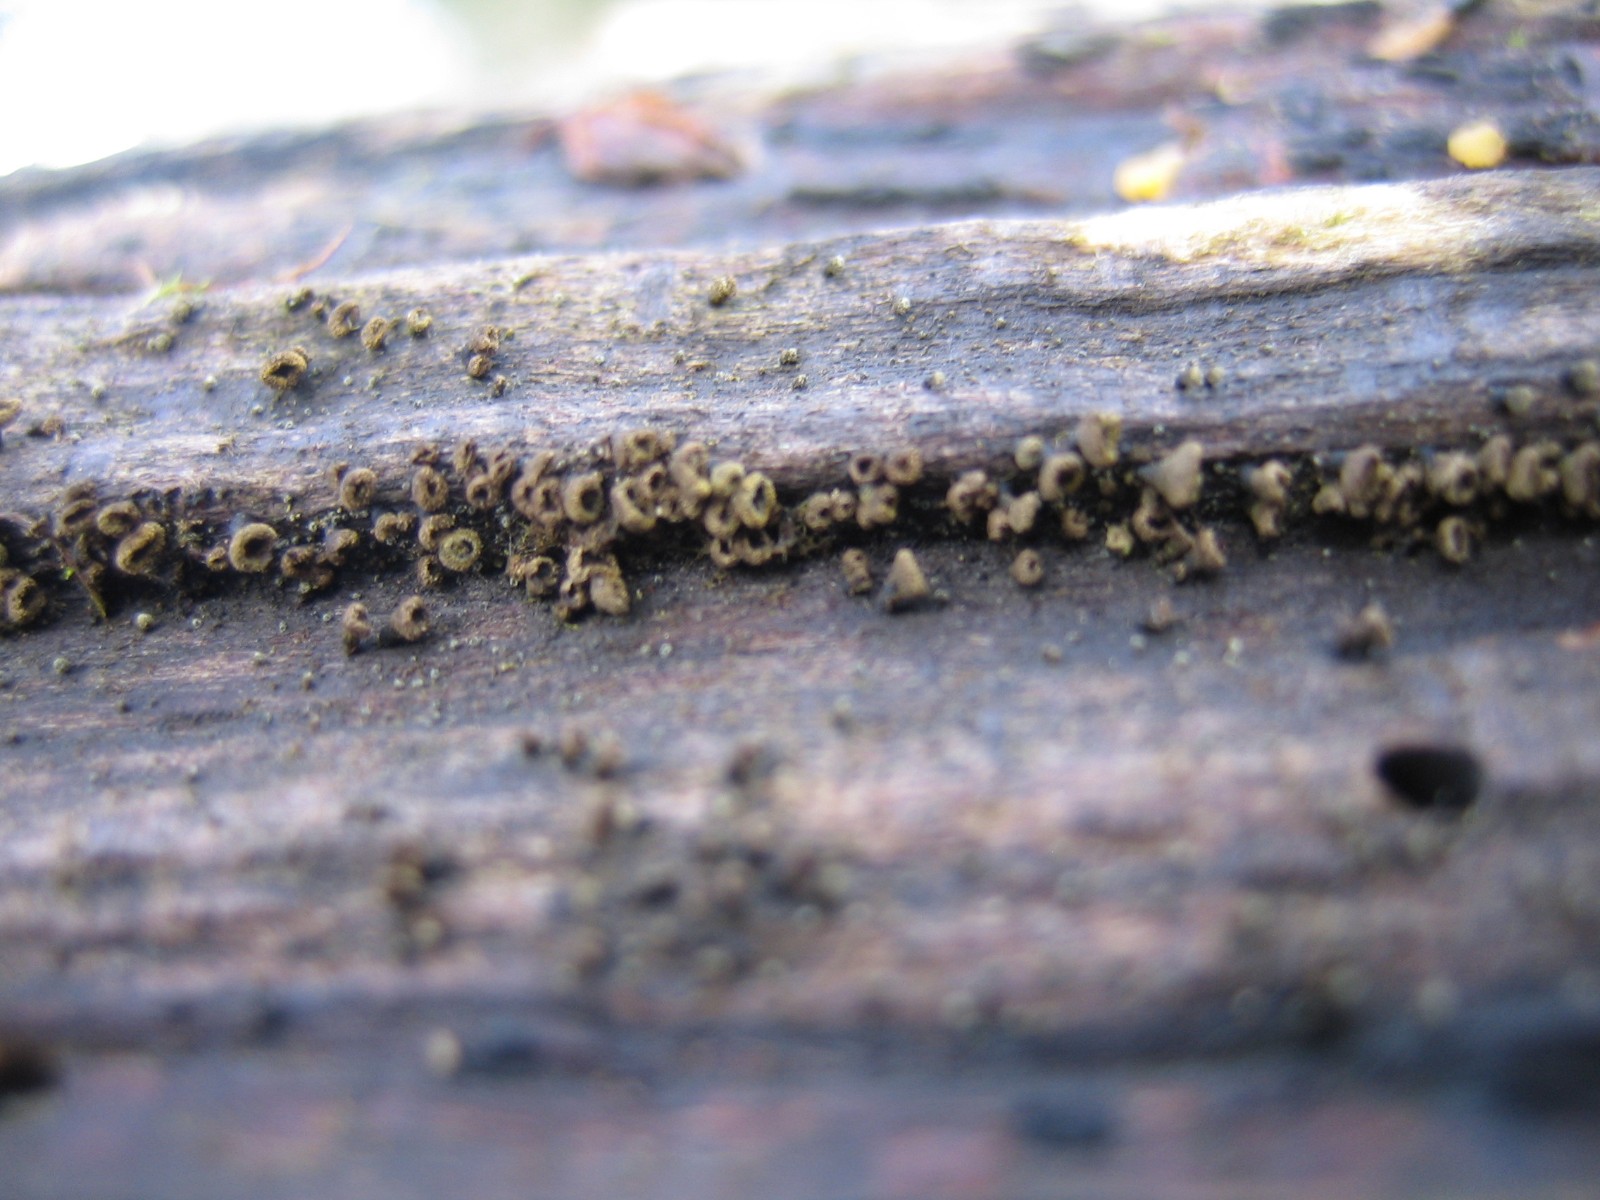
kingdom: Fungi
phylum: Ascomycota
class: Leotiomycetes
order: Helotiales
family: Lachnaceae
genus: Neodasyscypha
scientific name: Neodasyscypha cerina
